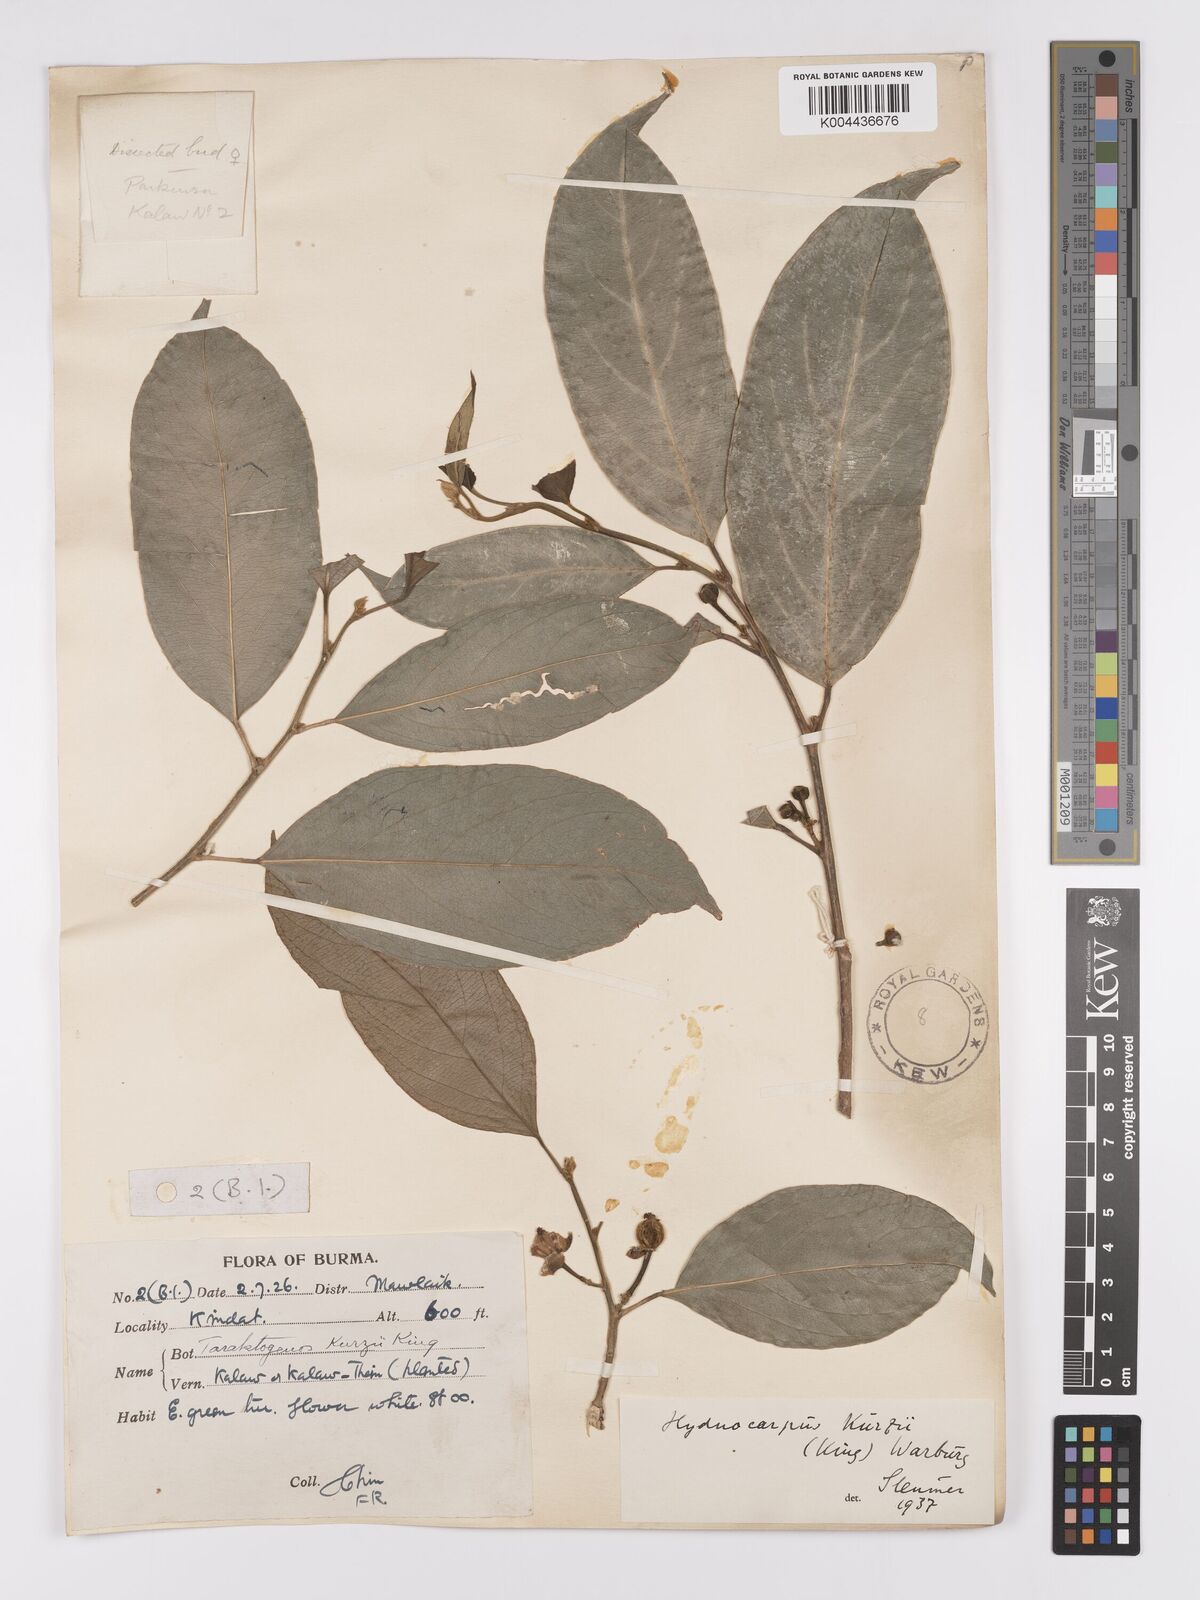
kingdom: Plantae
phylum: Tracheophyta
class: Magnoliopsida
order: Malpighiales
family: Achariaceae
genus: Hydnocarpus
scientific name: Hydnocarpus kurzii
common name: Chaulmoogra
